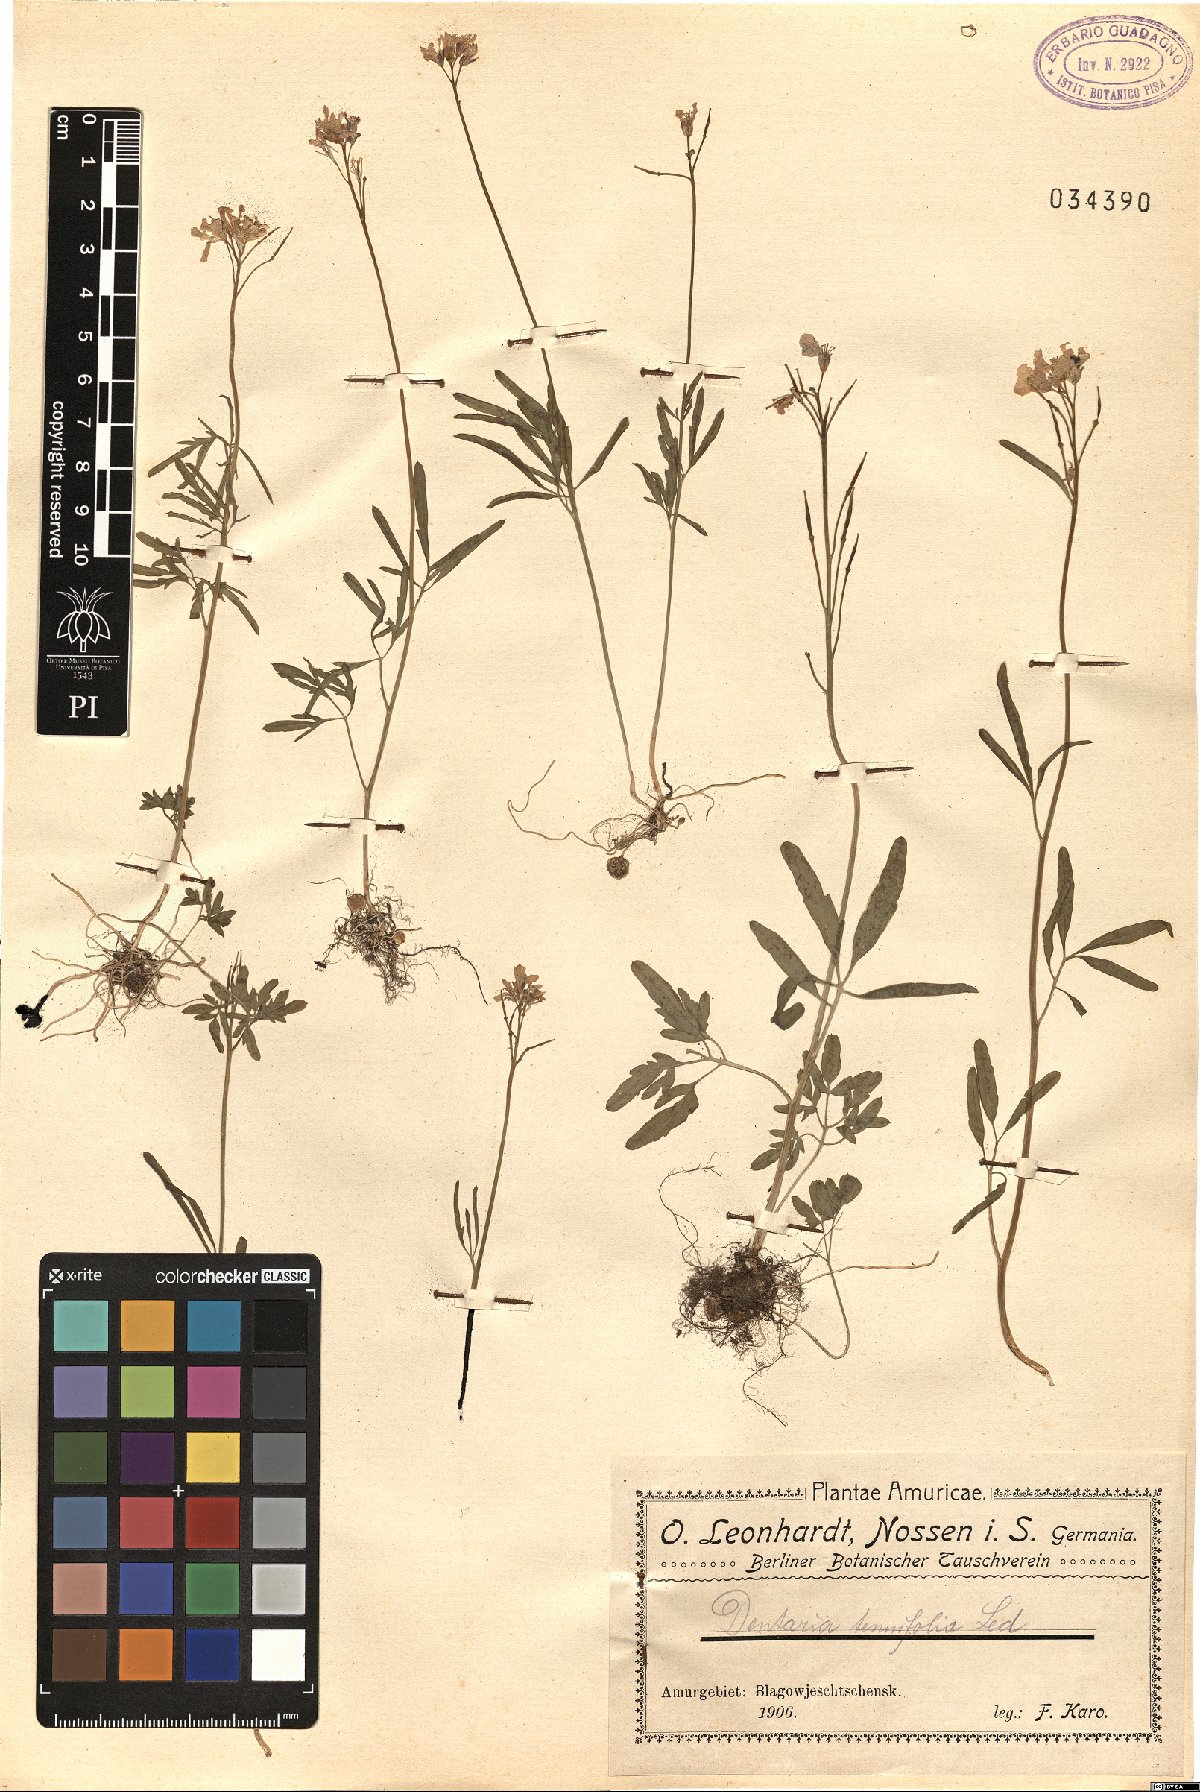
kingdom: Plantae
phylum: Tracheophyta
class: Magnoliopsida
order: Brassicales
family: Brassicaceae
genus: Cardamine
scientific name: Cardamine trifida
